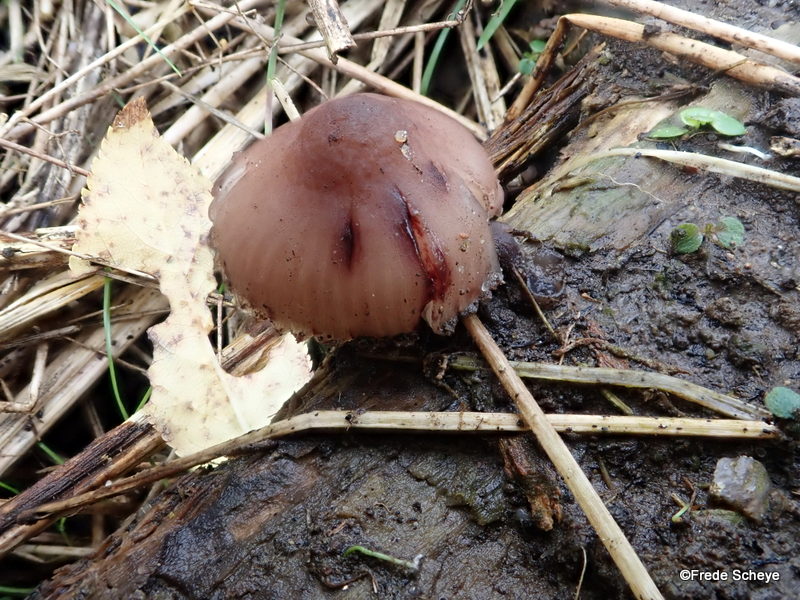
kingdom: Fungi
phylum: Basidiomycota
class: Agaricomycetes
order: Agaricales
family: Mycenaceae
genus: Mycena
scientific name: Mycena haematopus
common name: blødende huesvamp
